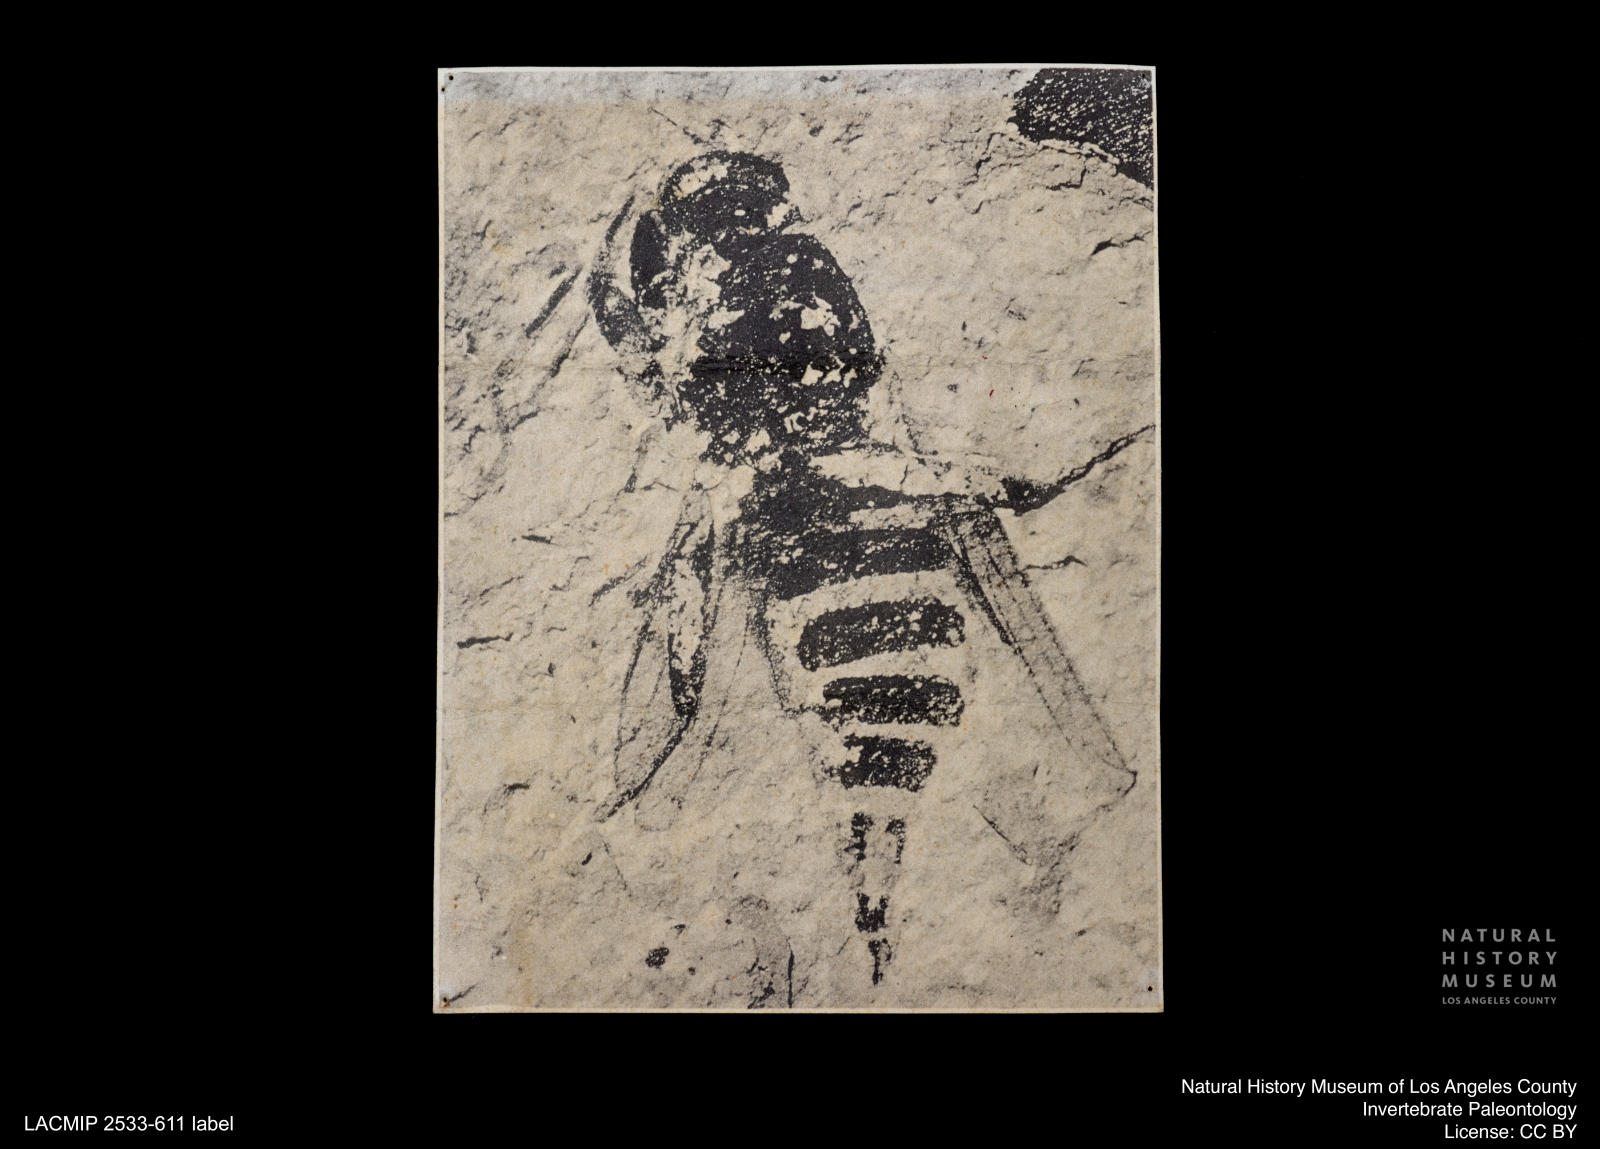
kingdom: Animalia
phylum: Arthropoda
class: Insecta
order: Diptera
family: Sepsidae
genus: Sepsis
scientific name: Sepsis ignobilis
